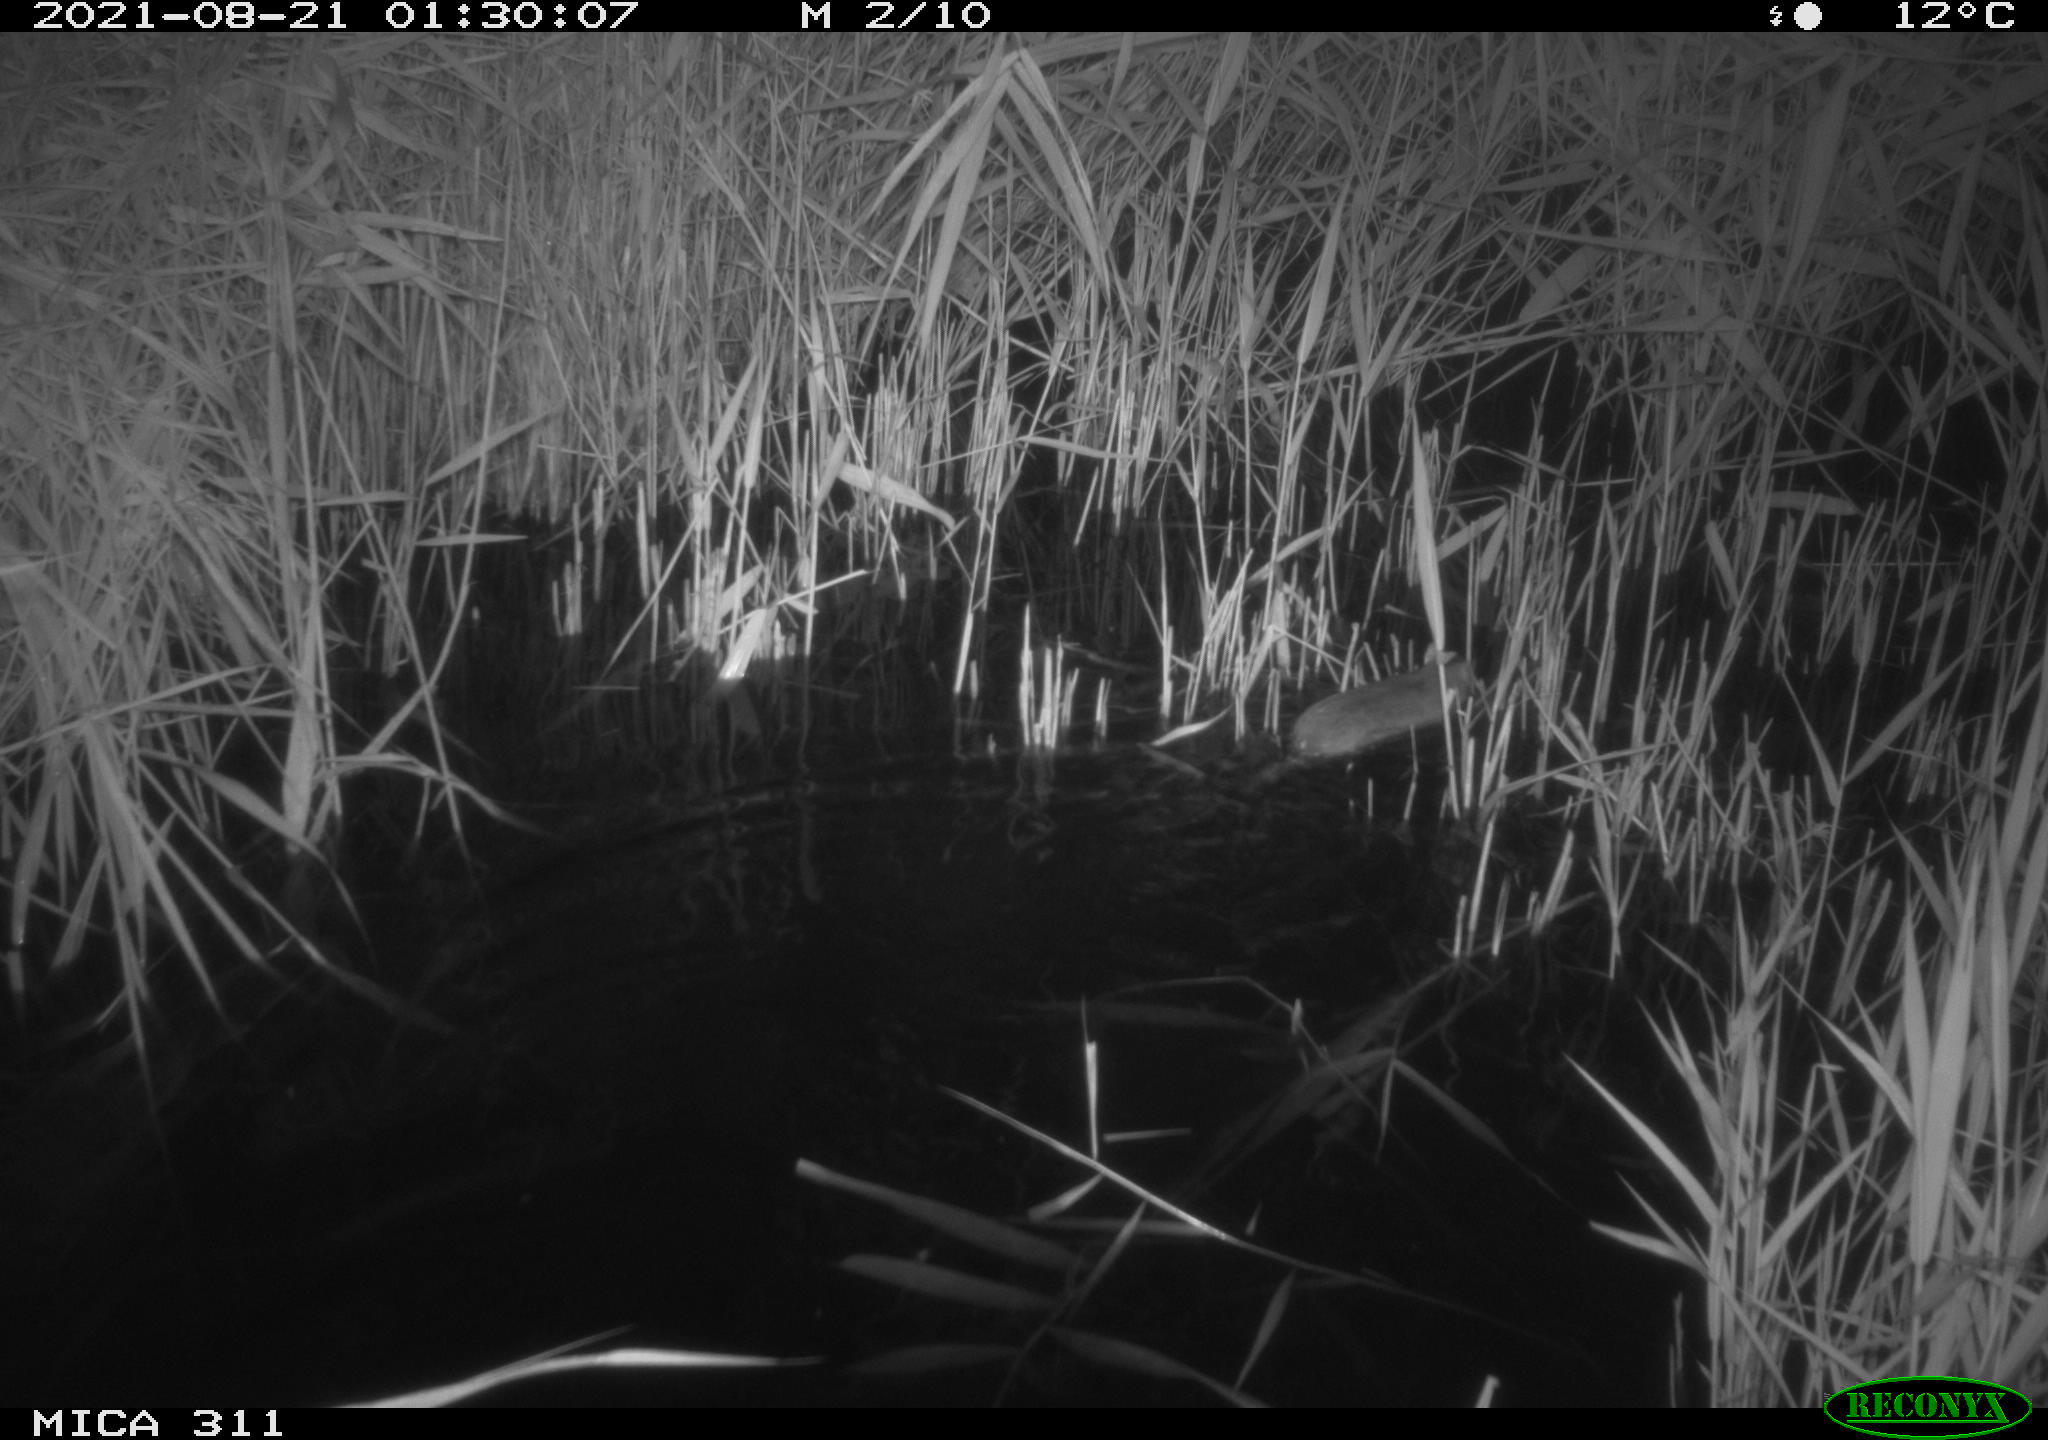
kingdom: Animalia
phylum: Chordata
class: Mammalia
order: Rodentia
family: Muridae
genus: Rattus
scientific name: Rattus norvegicus
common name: Brown rat
